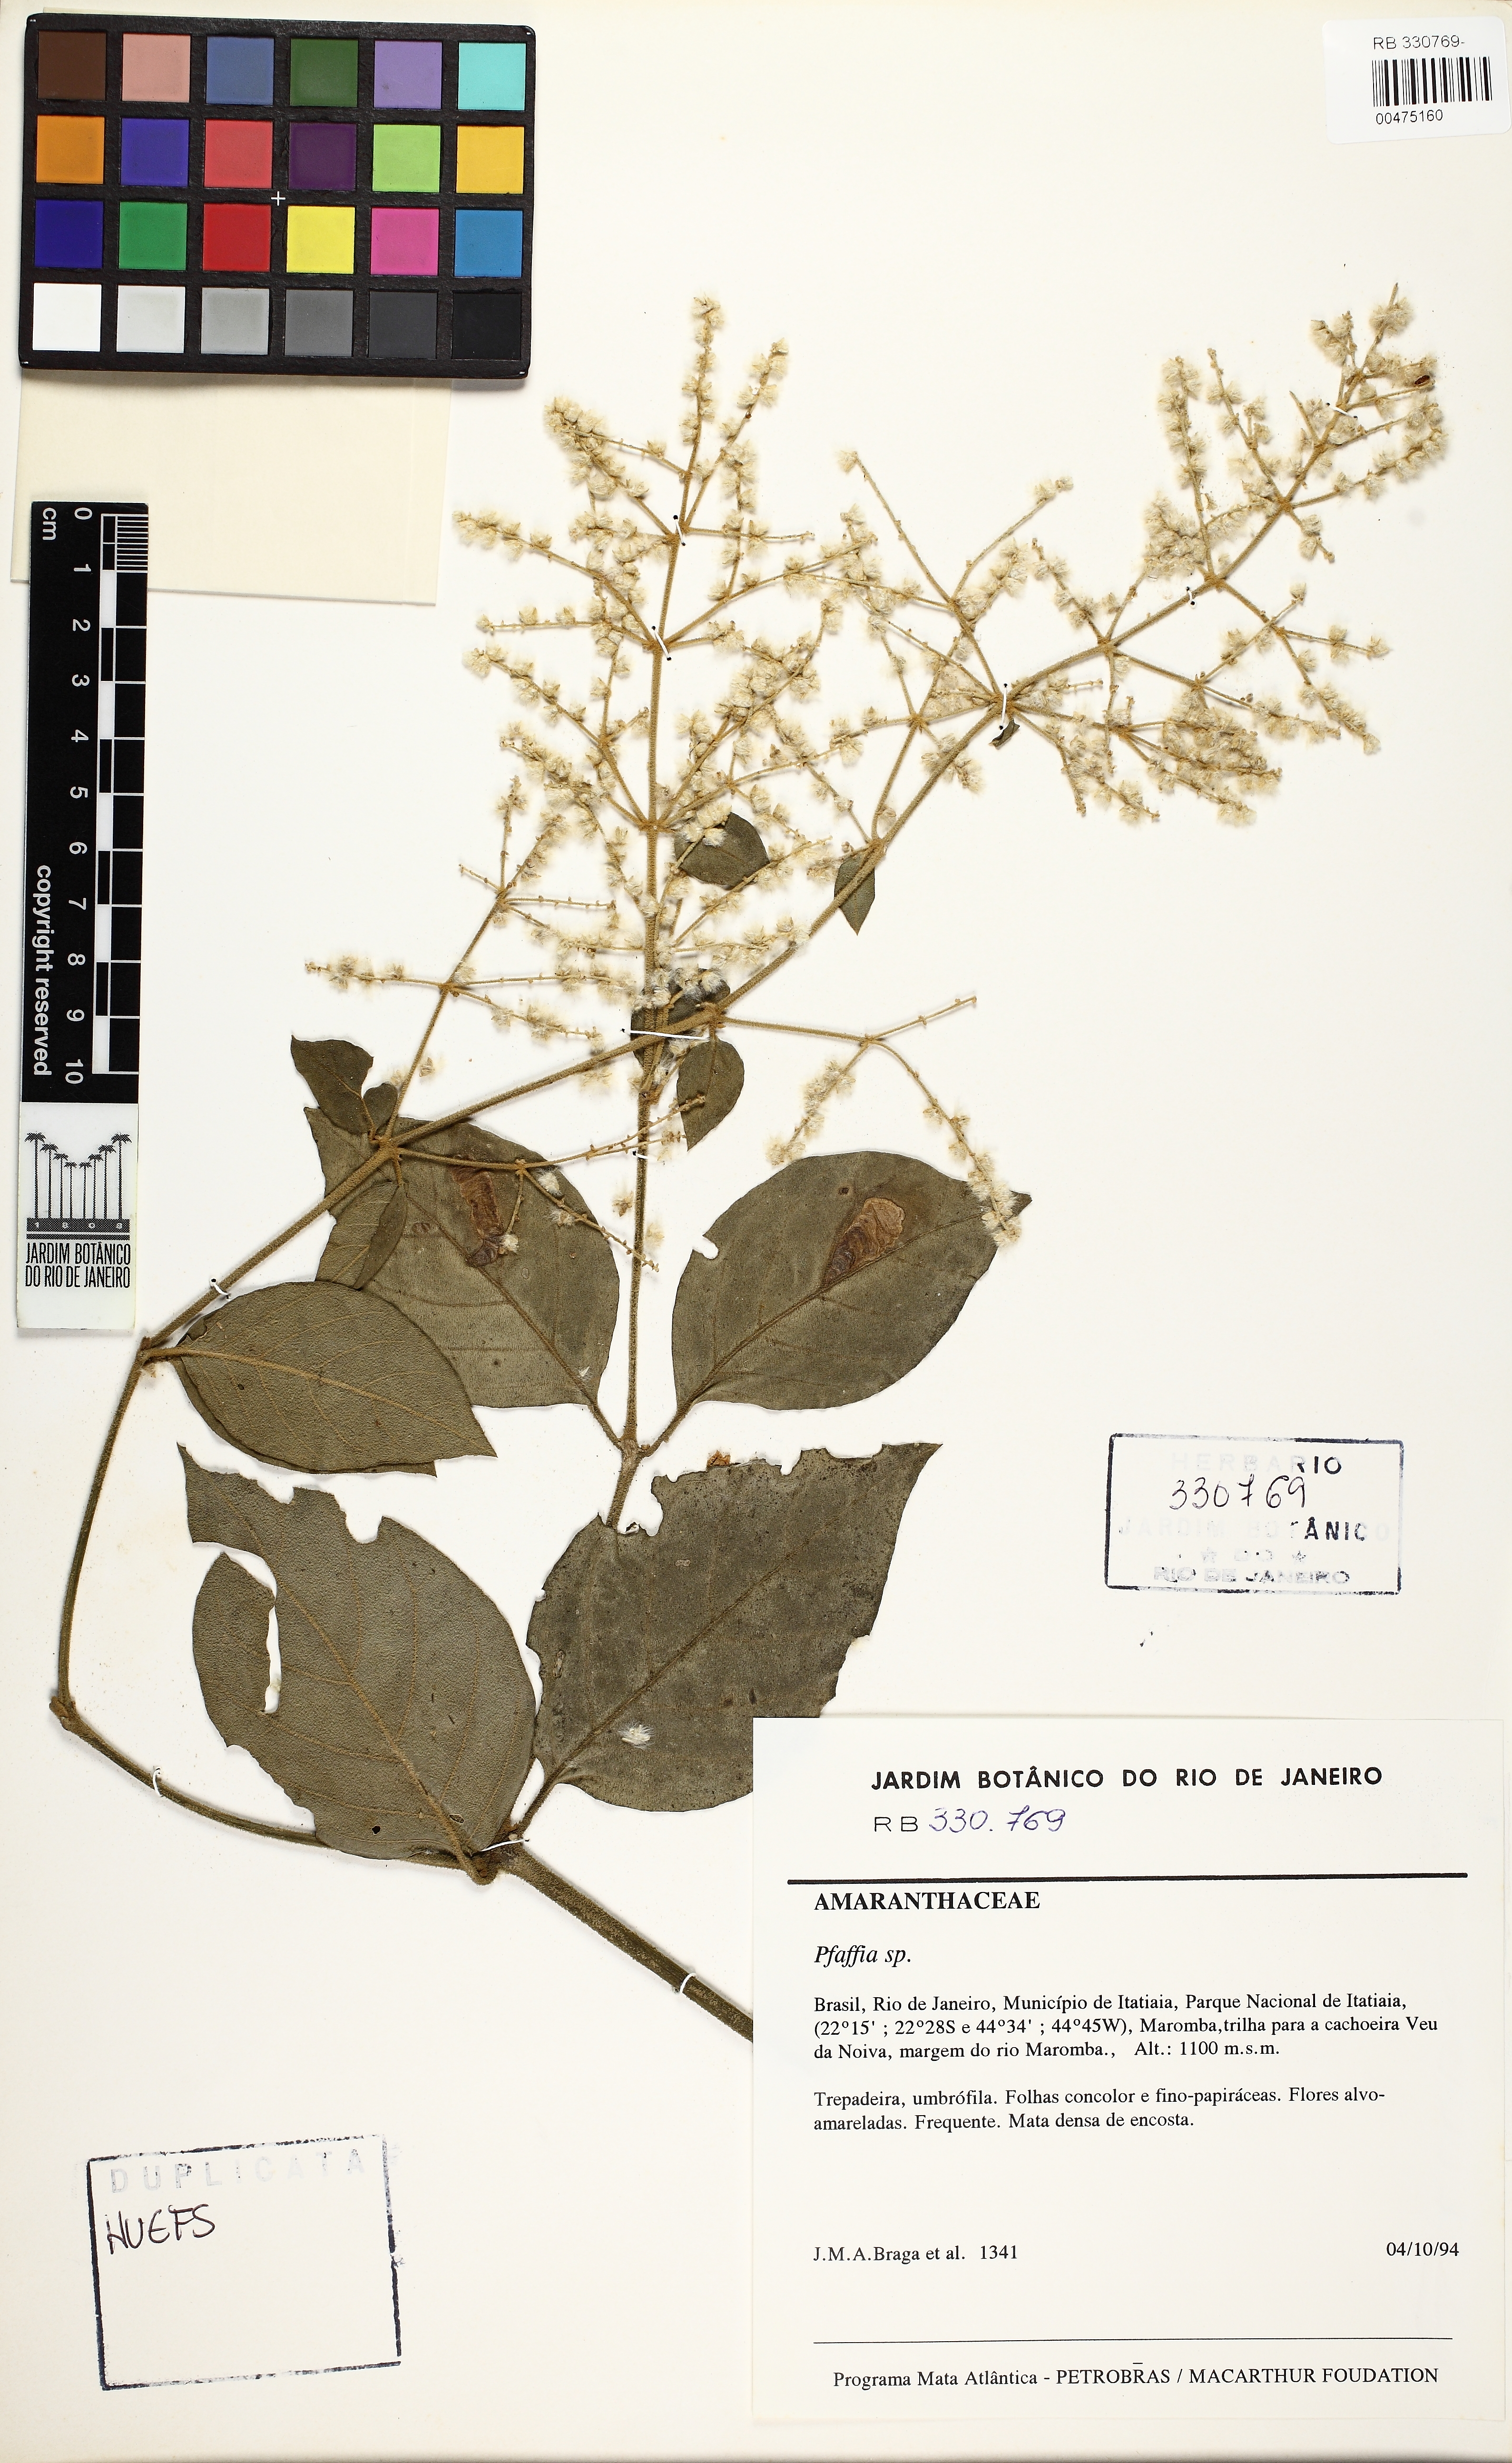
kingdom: Plantae
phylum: Tracheophyta
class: Magnoliopsida
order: Caryophyllales
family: Amaranthaceae
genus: Pfaffia
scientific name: Pfaffia
